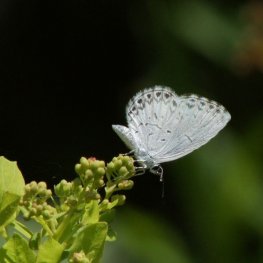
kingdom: Animalia
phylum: Arthropoda
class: Insecta
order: Lepidoptera
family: Lycaenidae
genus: Cyaniris
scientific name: Cyaniris neglecta
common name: Summer Azure
